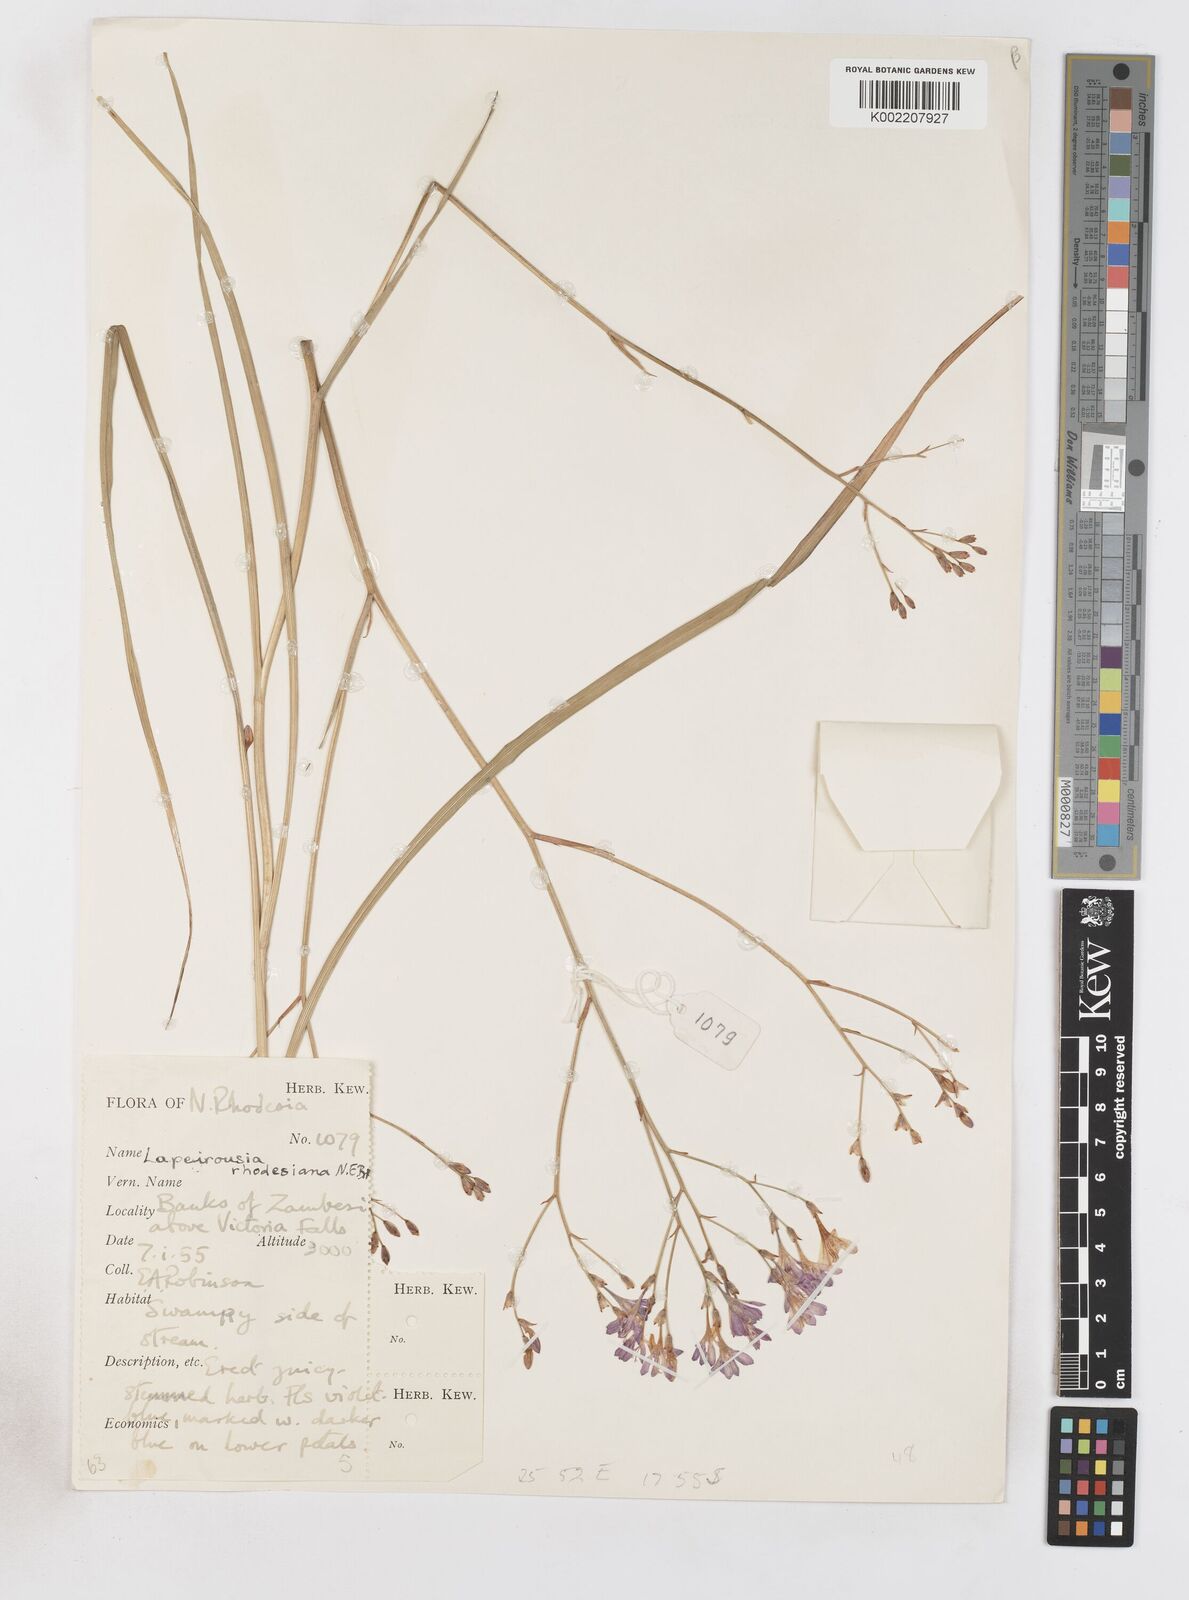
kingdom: Plantae
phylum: Tracheophyta
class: Liliopsida
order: Asparagales
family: Iridaceae
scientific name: Iridaceae
